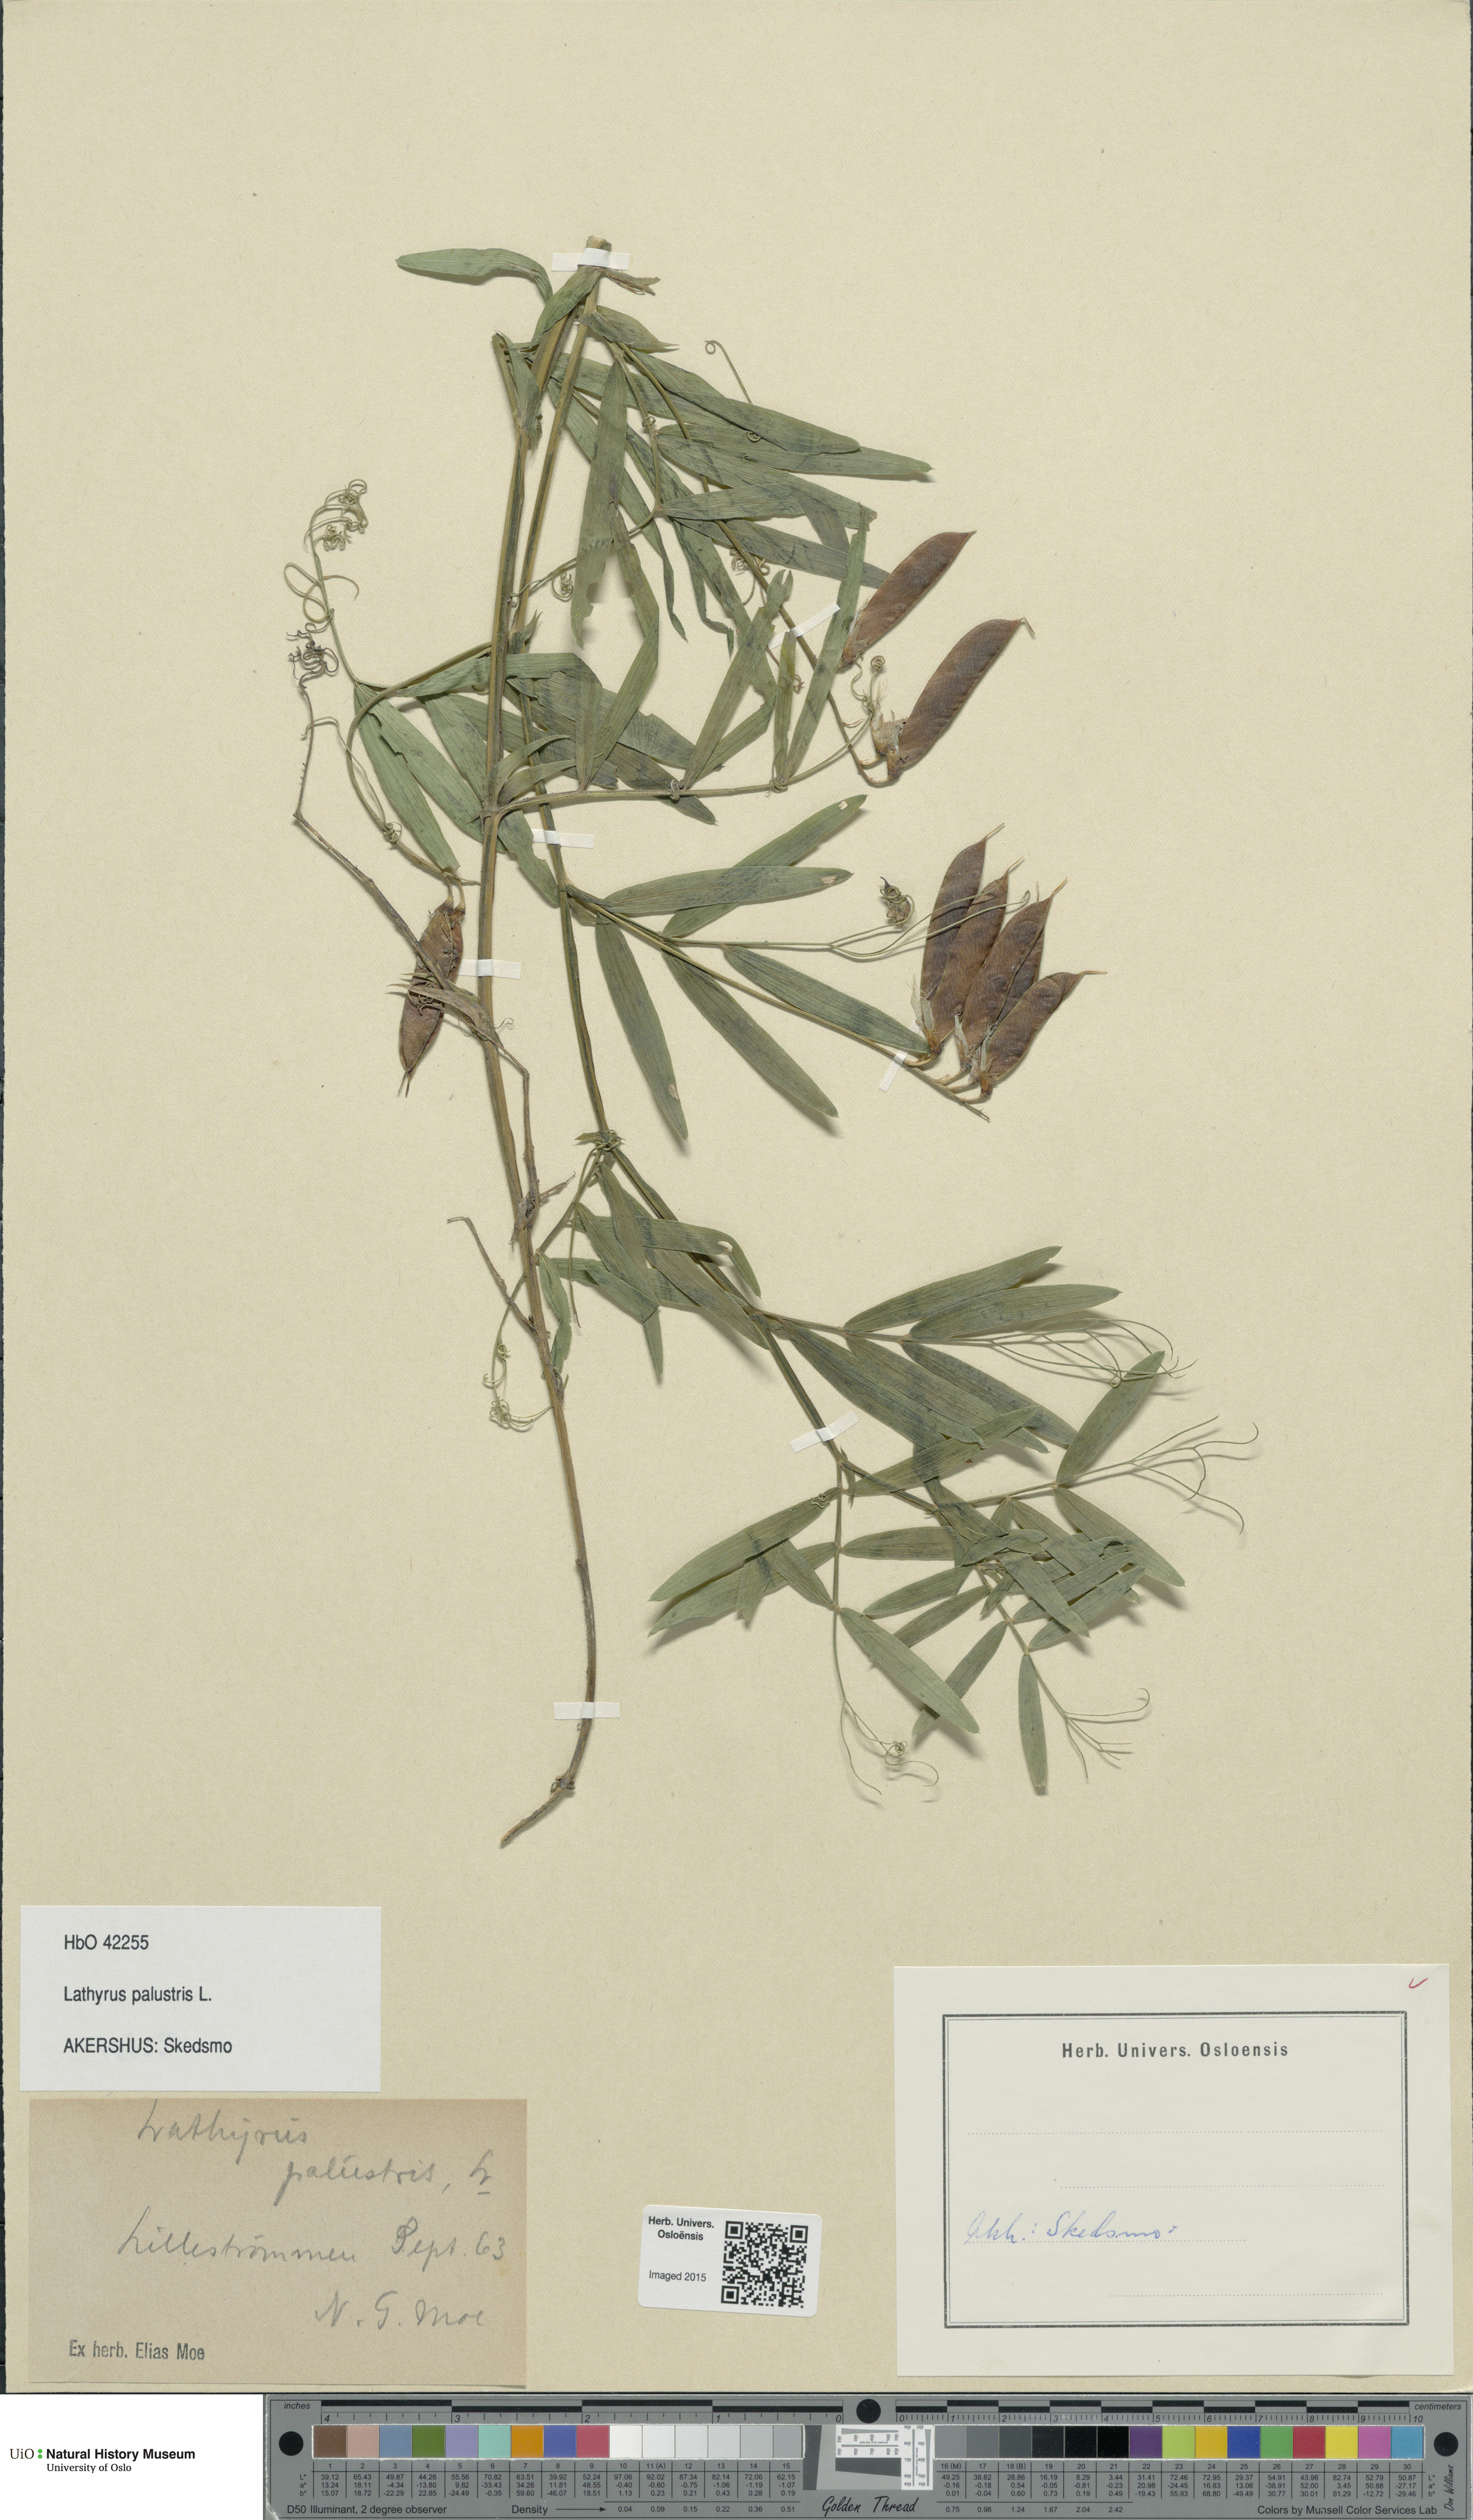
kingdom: Plantae
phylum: Tracheophyta
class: Magnoliopsida
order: Fabales
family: Fabaceae
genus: Lathyrus
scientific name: Lathyrus palustris
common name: Marsh pea
